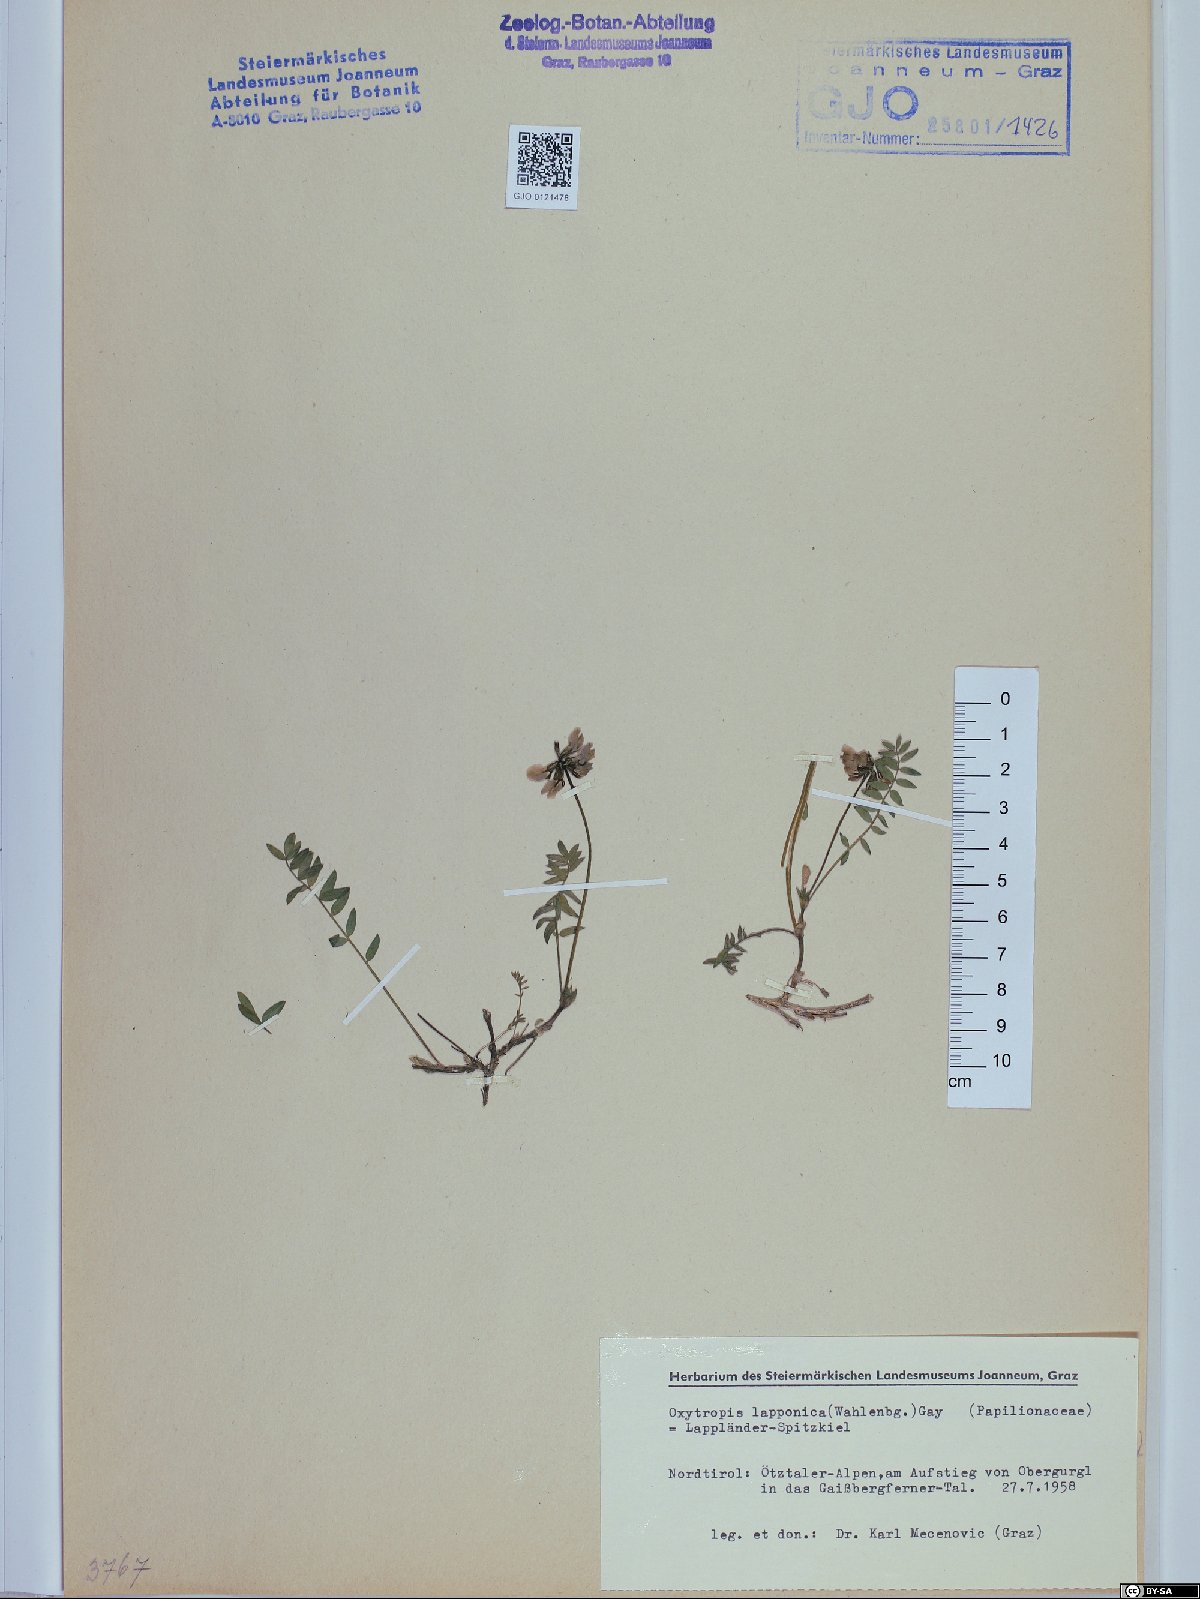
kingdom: Plantae
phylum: Tracheophyta
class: Magnoliopsida
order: Fabales
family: Fabaceae
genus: Oxytropis
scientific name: Oxytropis lapponica
